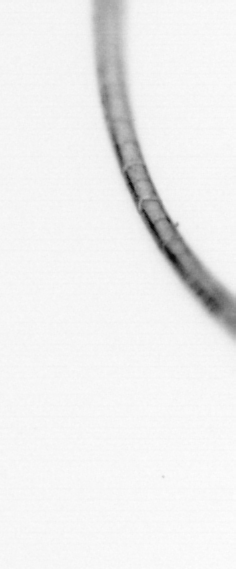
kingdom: Chromista
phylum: Ochrophyta
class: Bacillariophyceae
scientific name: Bacillariophyceae
